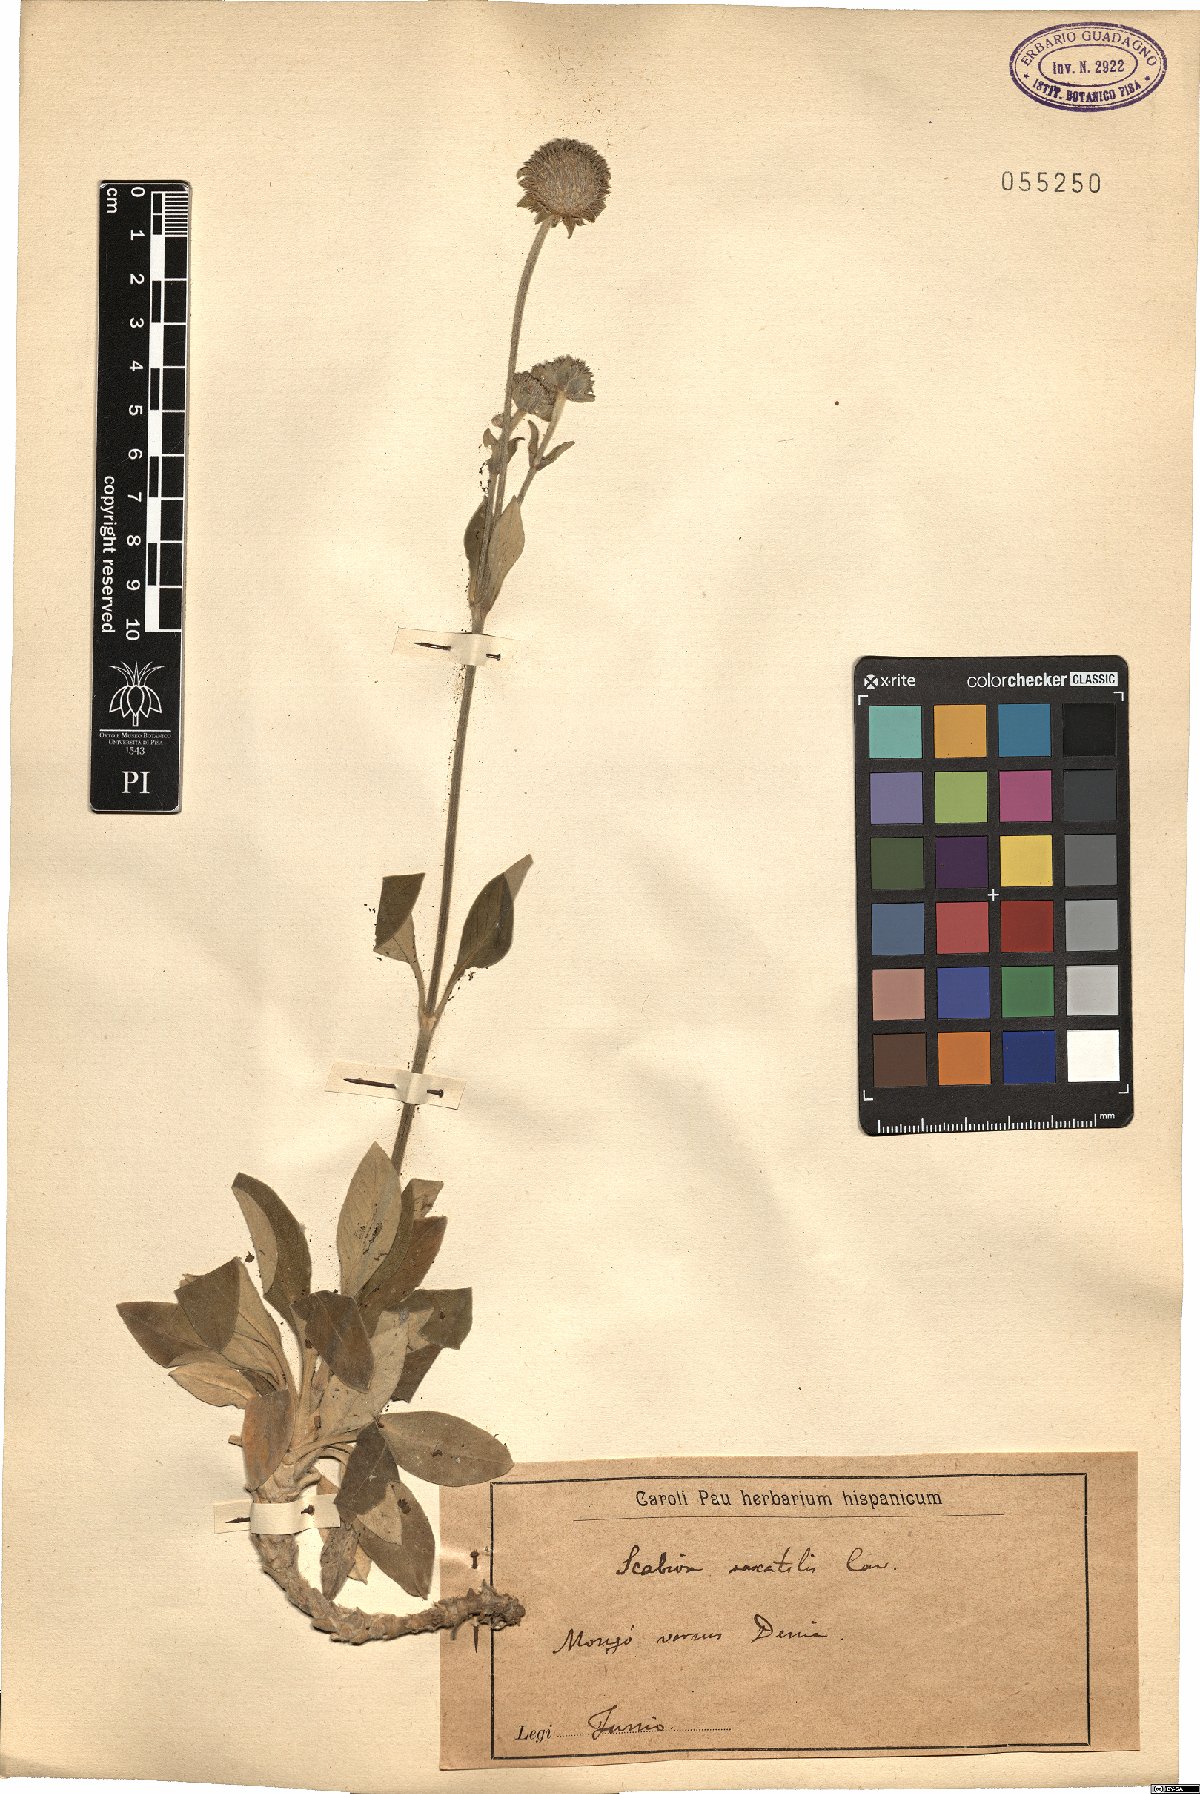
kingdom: Plantae
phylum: Tracheophyta
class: Magnoliopsida
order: Dipsacales
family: Caprifoliaceae
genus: Pseudoscabiosa
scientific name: Pseudoscabiosa saxatilis
